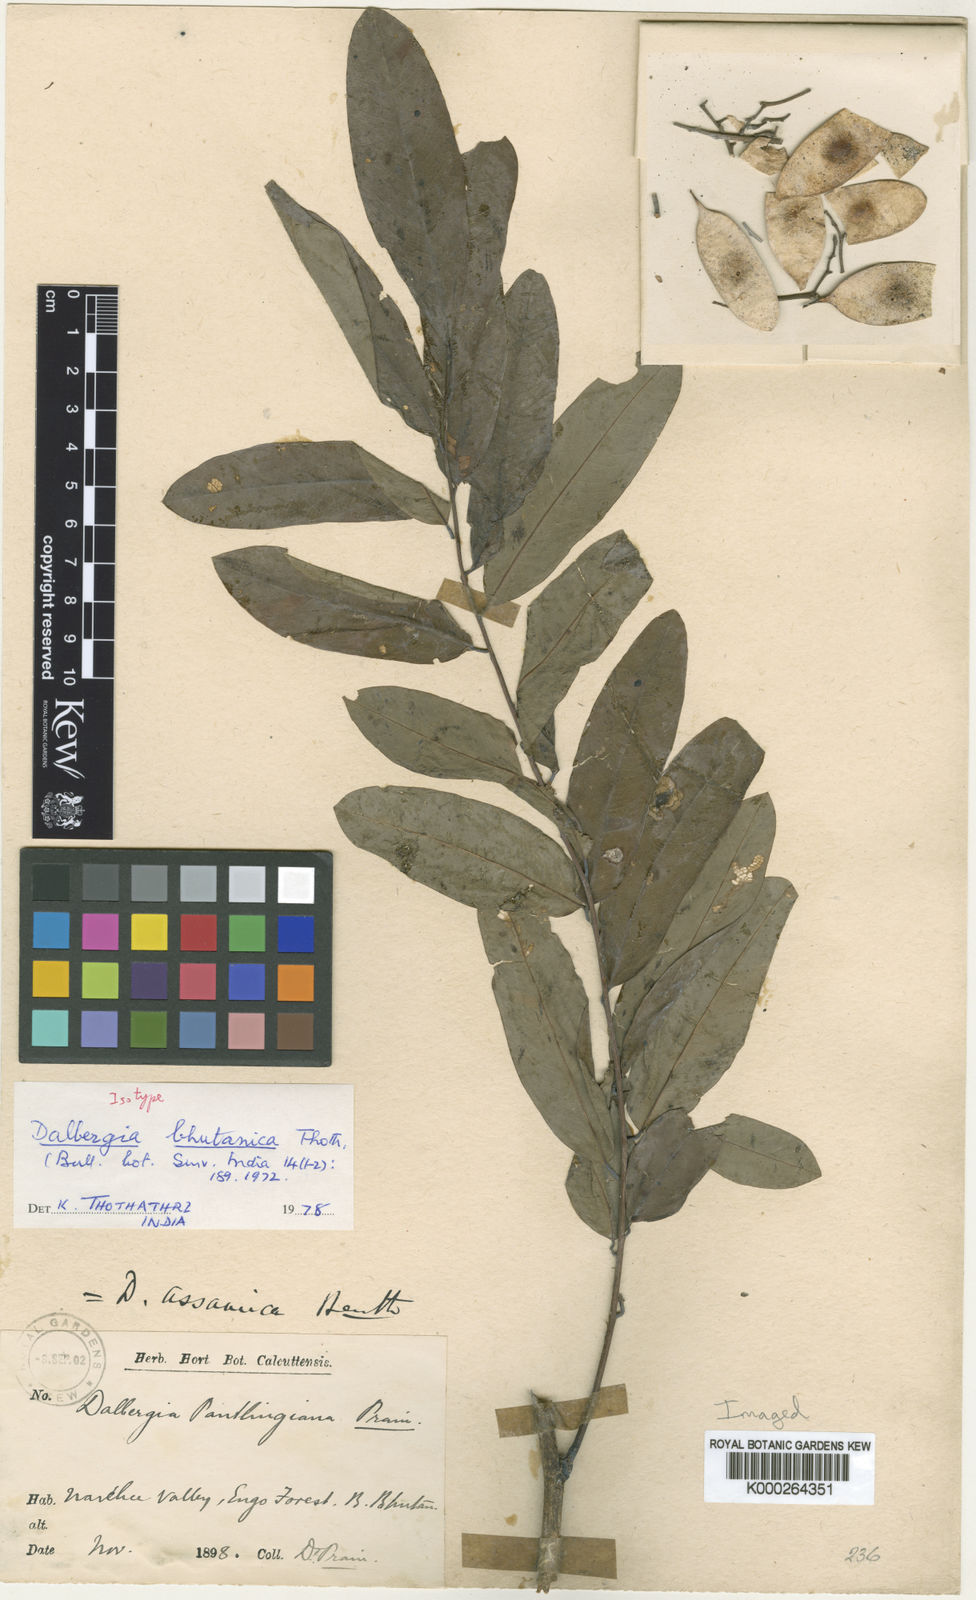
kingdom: Plantae
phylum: Tracheophyta
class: Magnoliopsida
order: Fabales
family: Fabaceae
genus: Dalbergia
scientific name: Dalbergia assamica
